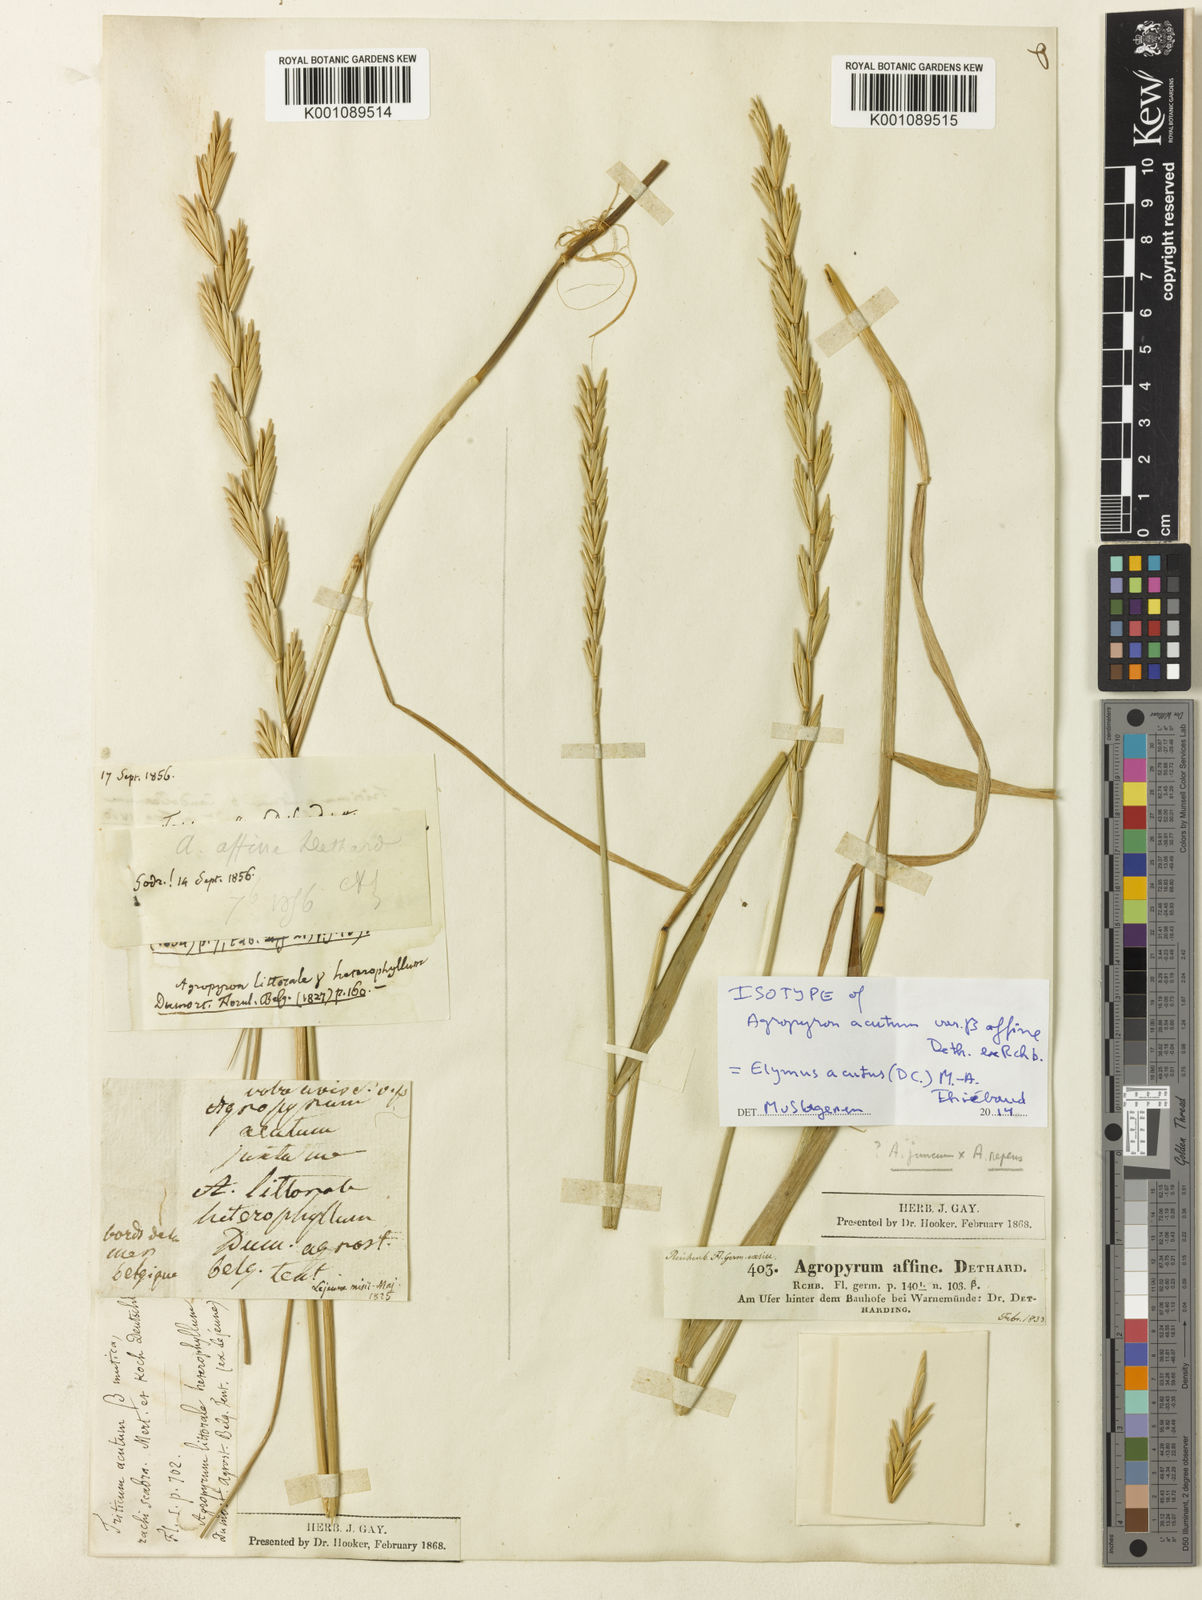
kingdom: Plantae
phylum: Tracheophyta
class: Liliopsida
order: Poales
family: Poaceae
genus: Thinopyrum
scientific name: Thinopyrum acutum
